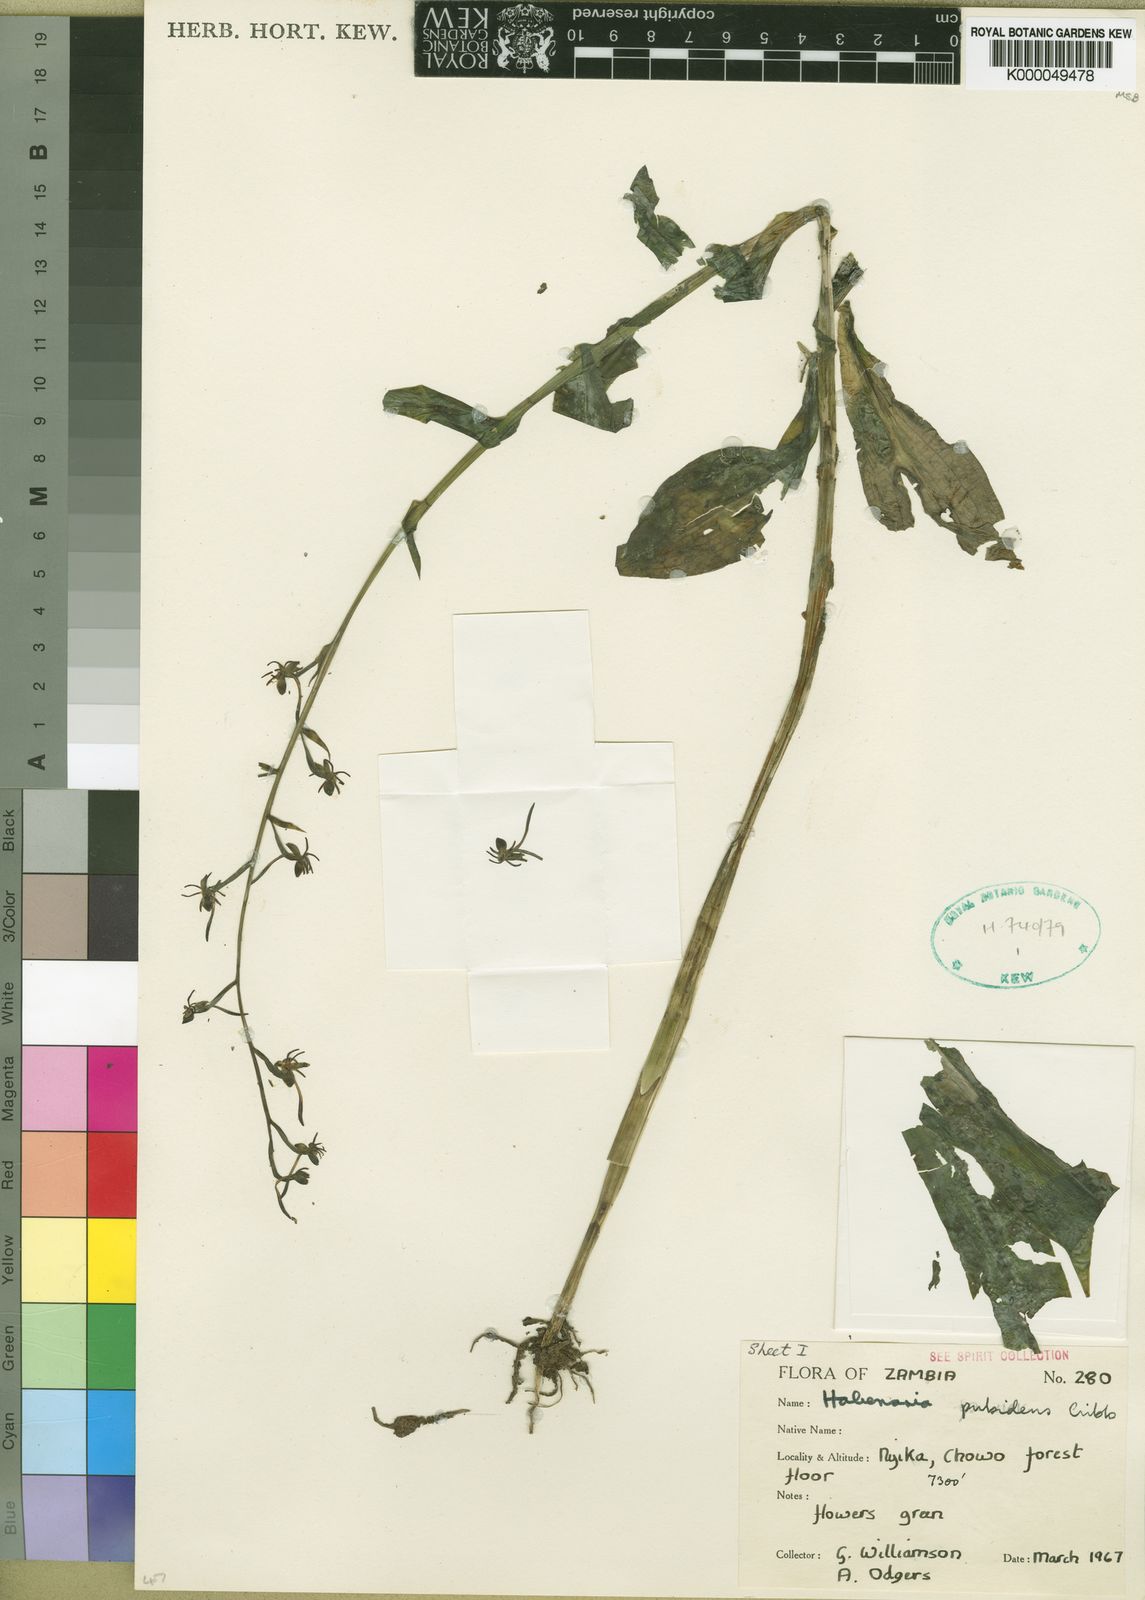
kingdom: Plantae
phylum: Tracheophyta
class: Liliopsida
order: Asparagales
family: Orchidaceae
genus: Habenaria
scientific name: Habenaria pubidens
